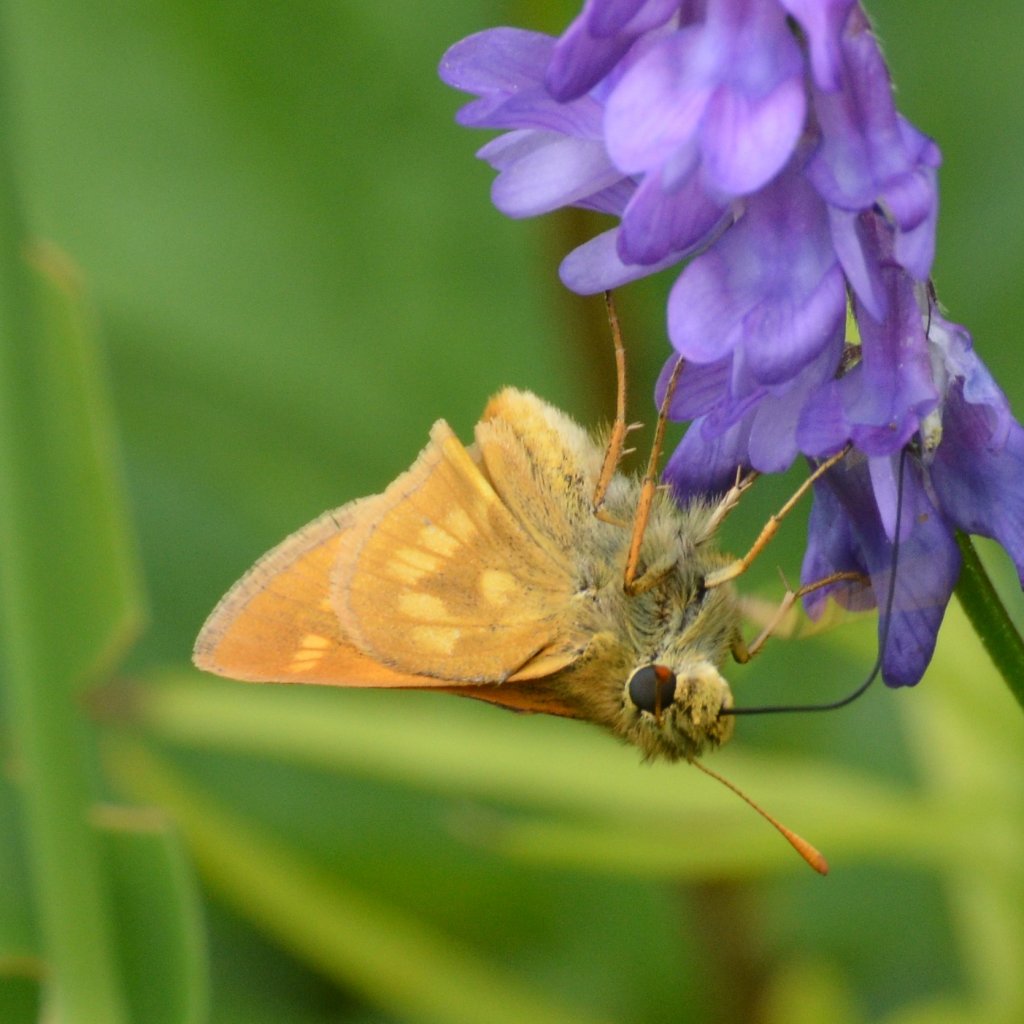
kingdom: Animalia
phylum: Arthropoda
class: Insecta
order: Lepidoptera
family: Hesperiidae
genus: Polites
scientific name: Polites
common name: Long Dash Skipper
